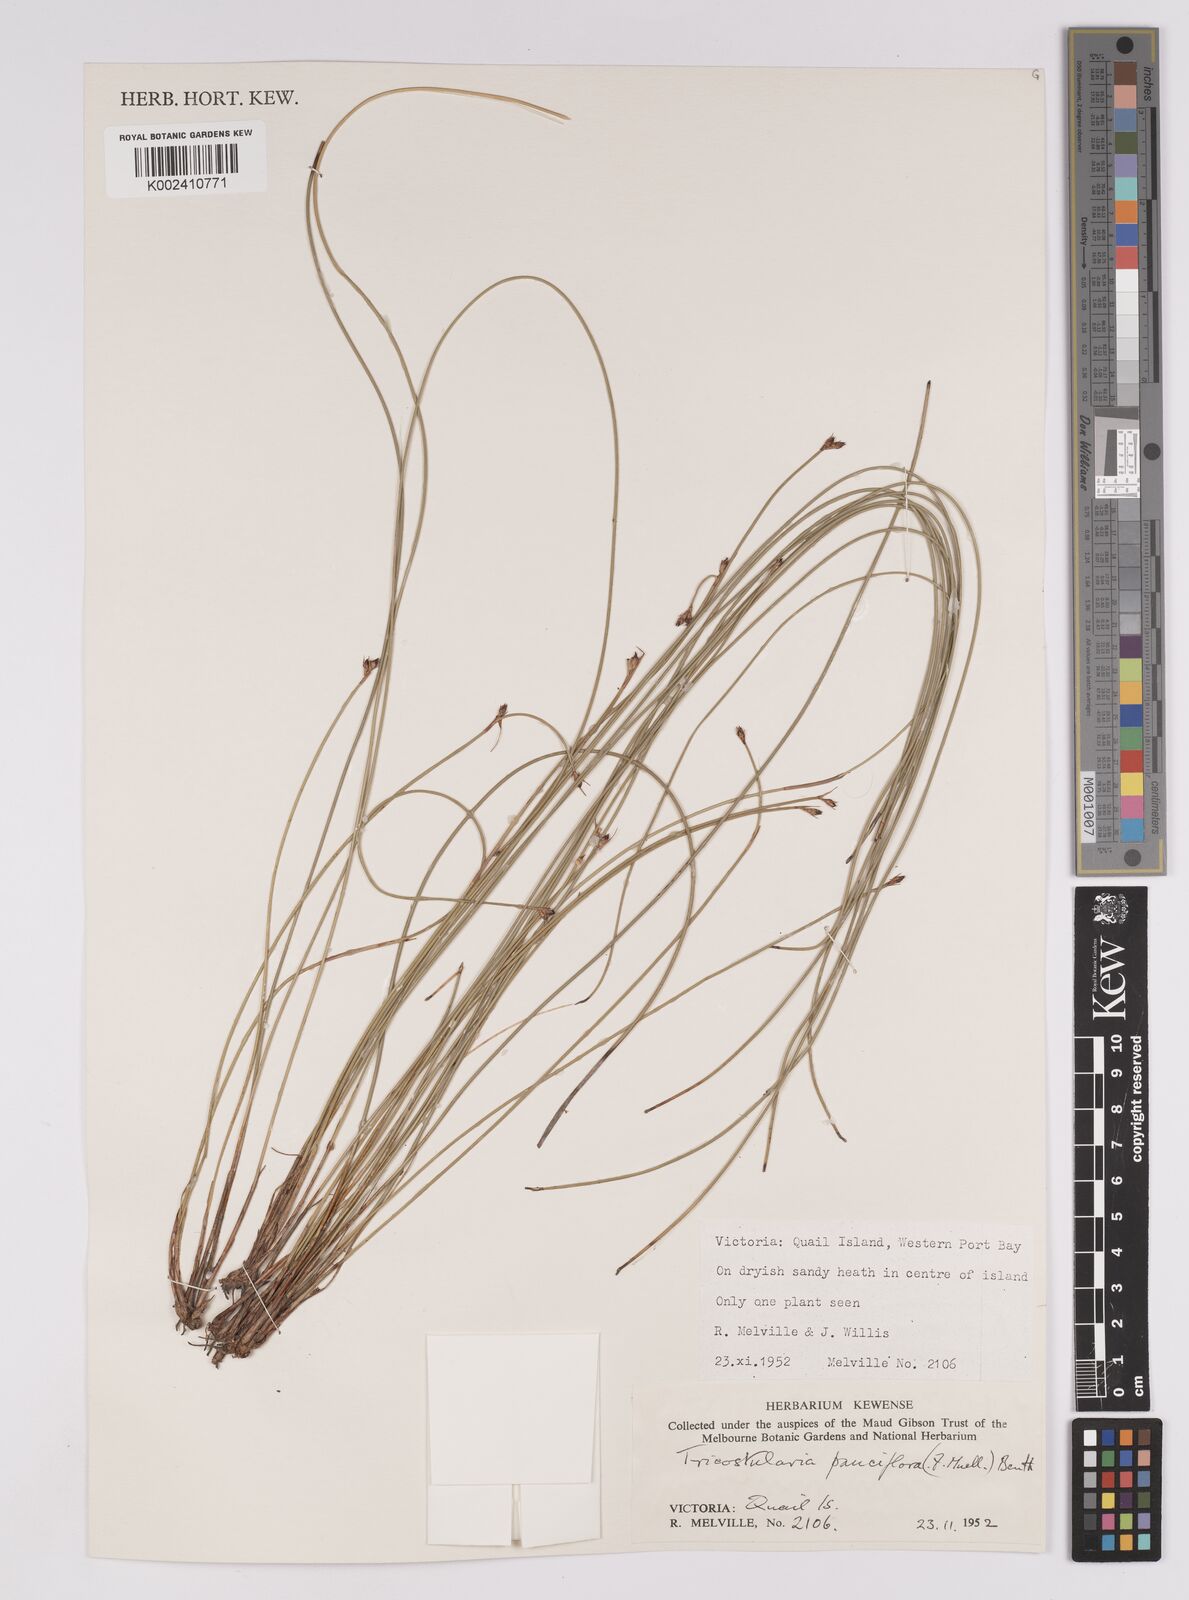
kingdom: Plantae
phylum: Tracheophyta
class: Liliopsida
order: Poales
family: Cyperaceae
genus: Tricostularia
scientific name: Tricostularia pauciflora
